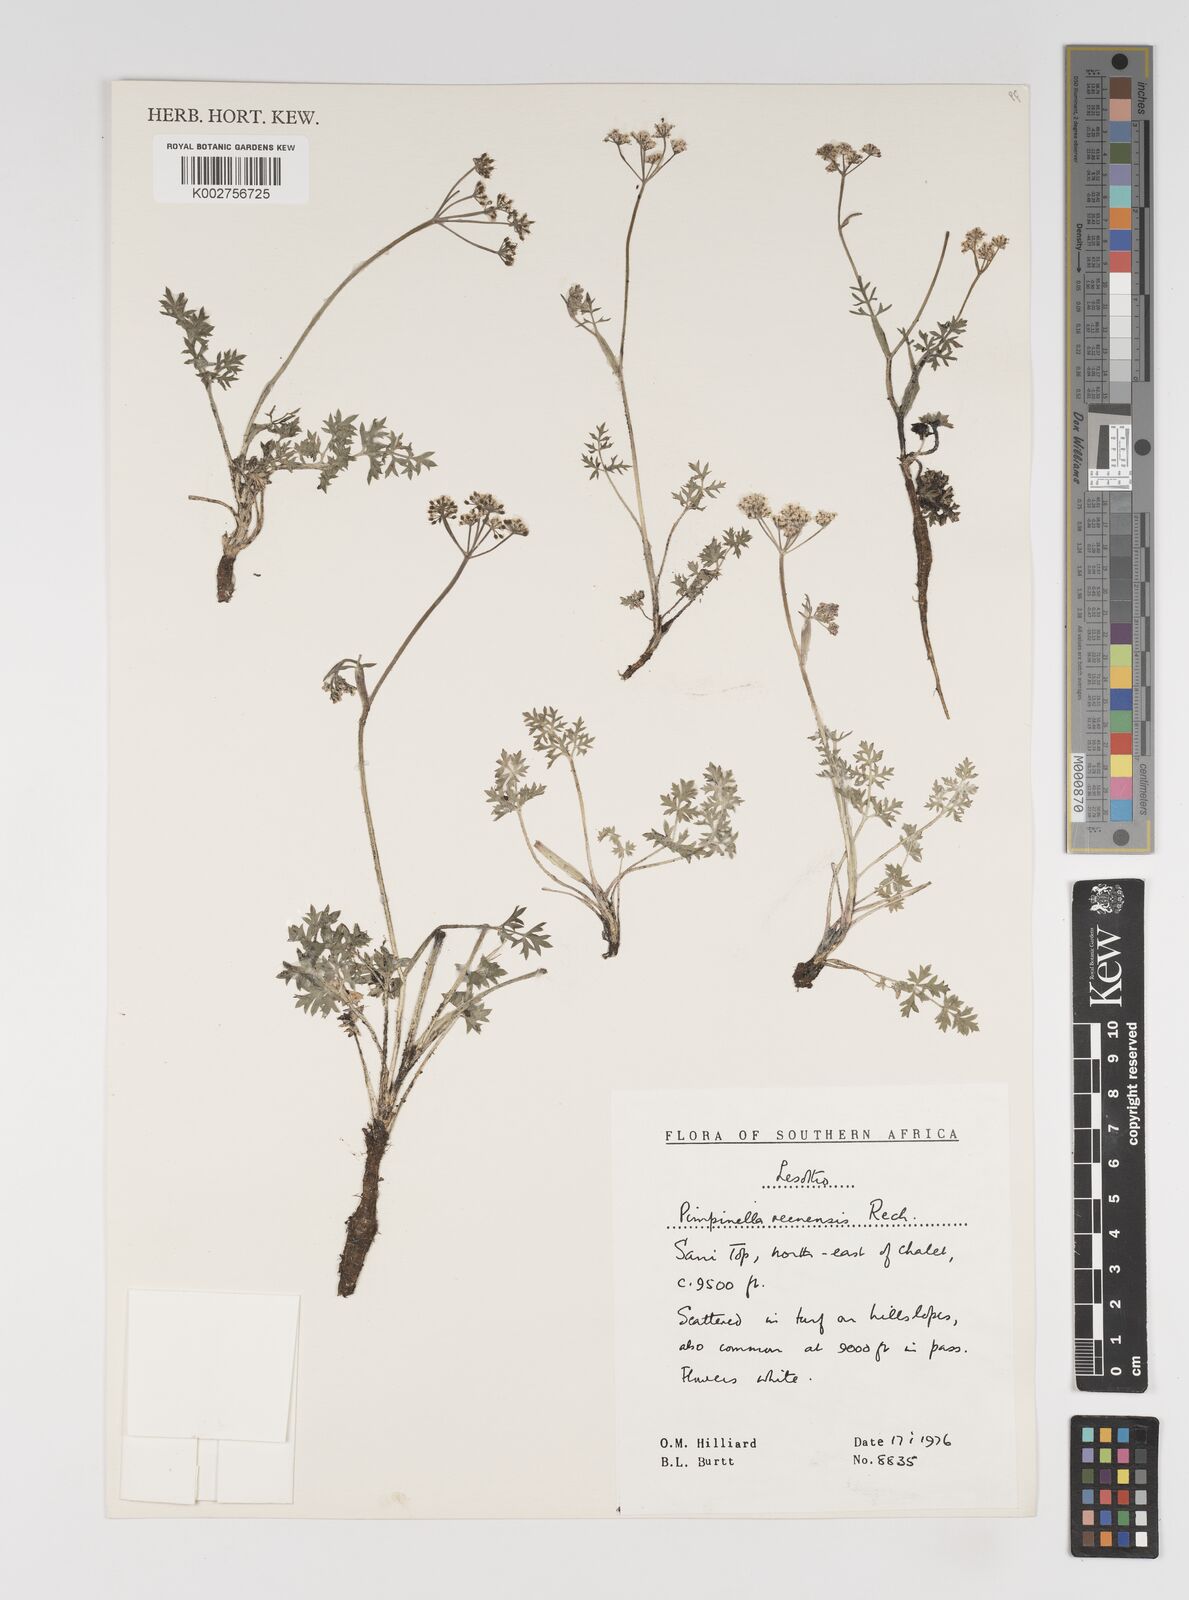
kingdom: Plantae
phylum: Tracheophyta
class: Magnoliopsida
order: Apiales
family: Apiaceae
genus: Pimpinella
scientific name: Pimpinella caffra
